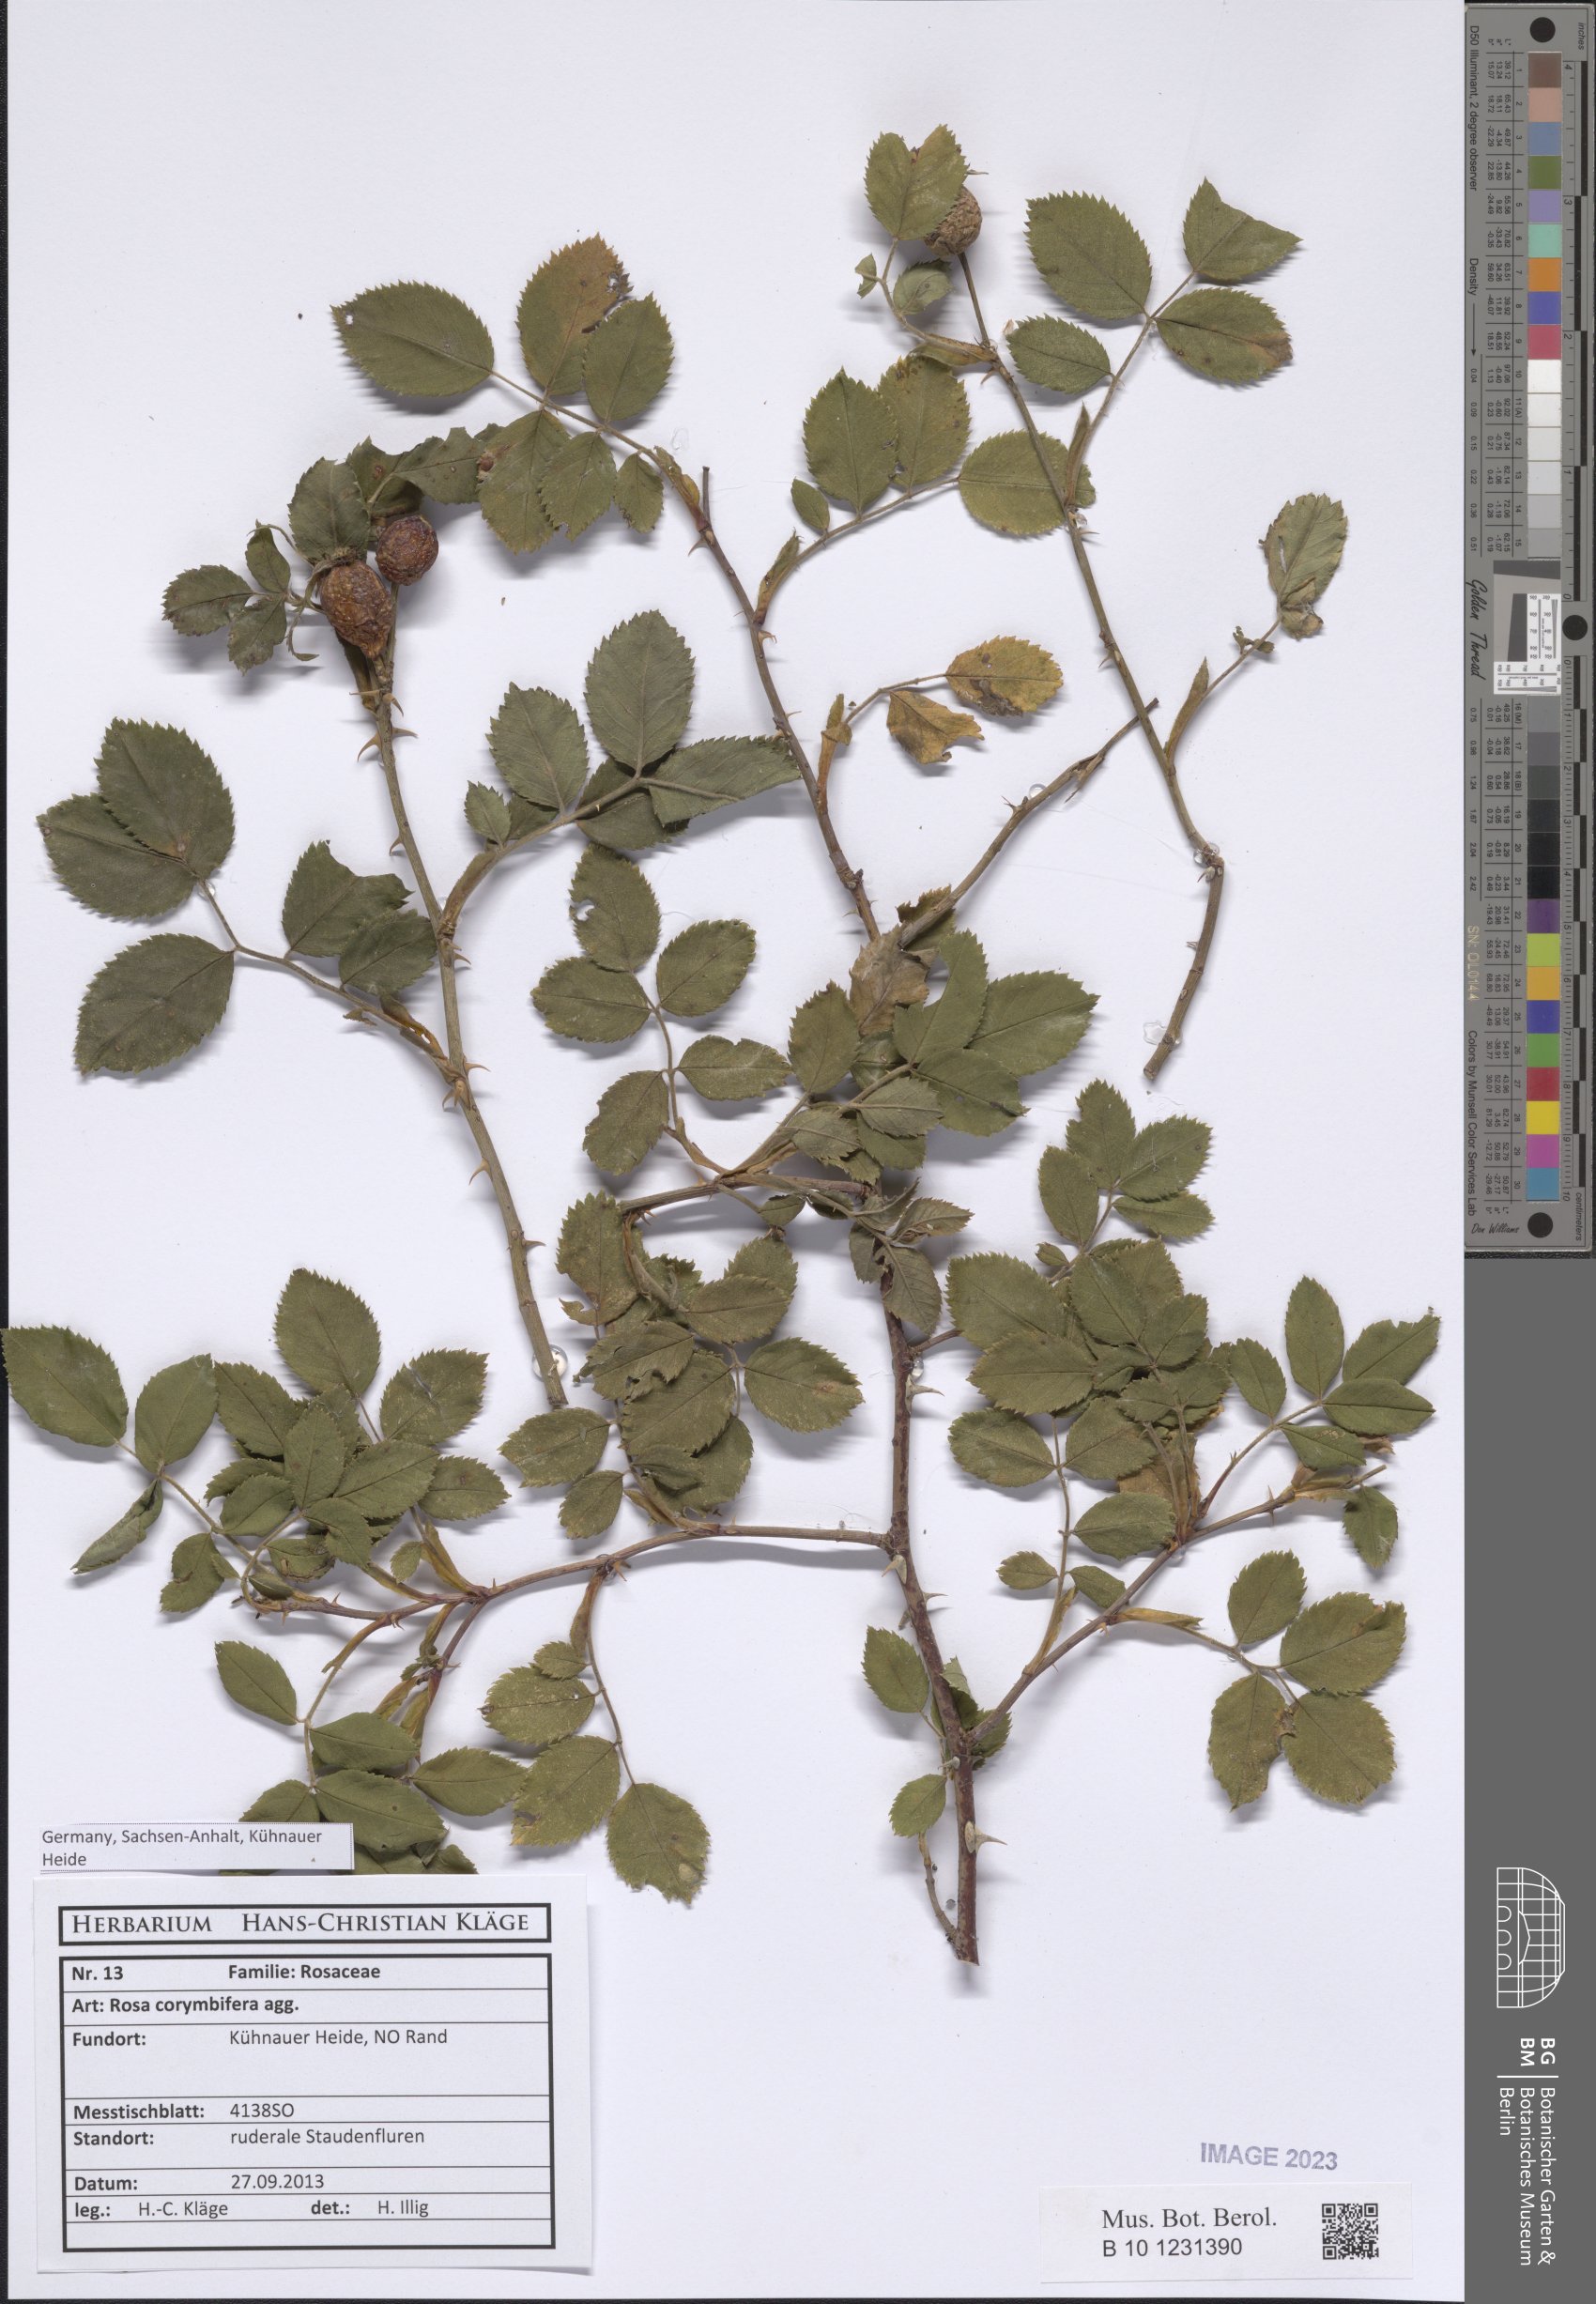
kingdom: Plantae
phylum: Tracheophyta
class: Magnoliopsida
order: Rosales
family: Rosaceae
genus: Rosa
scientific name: Rosa corymbifera
